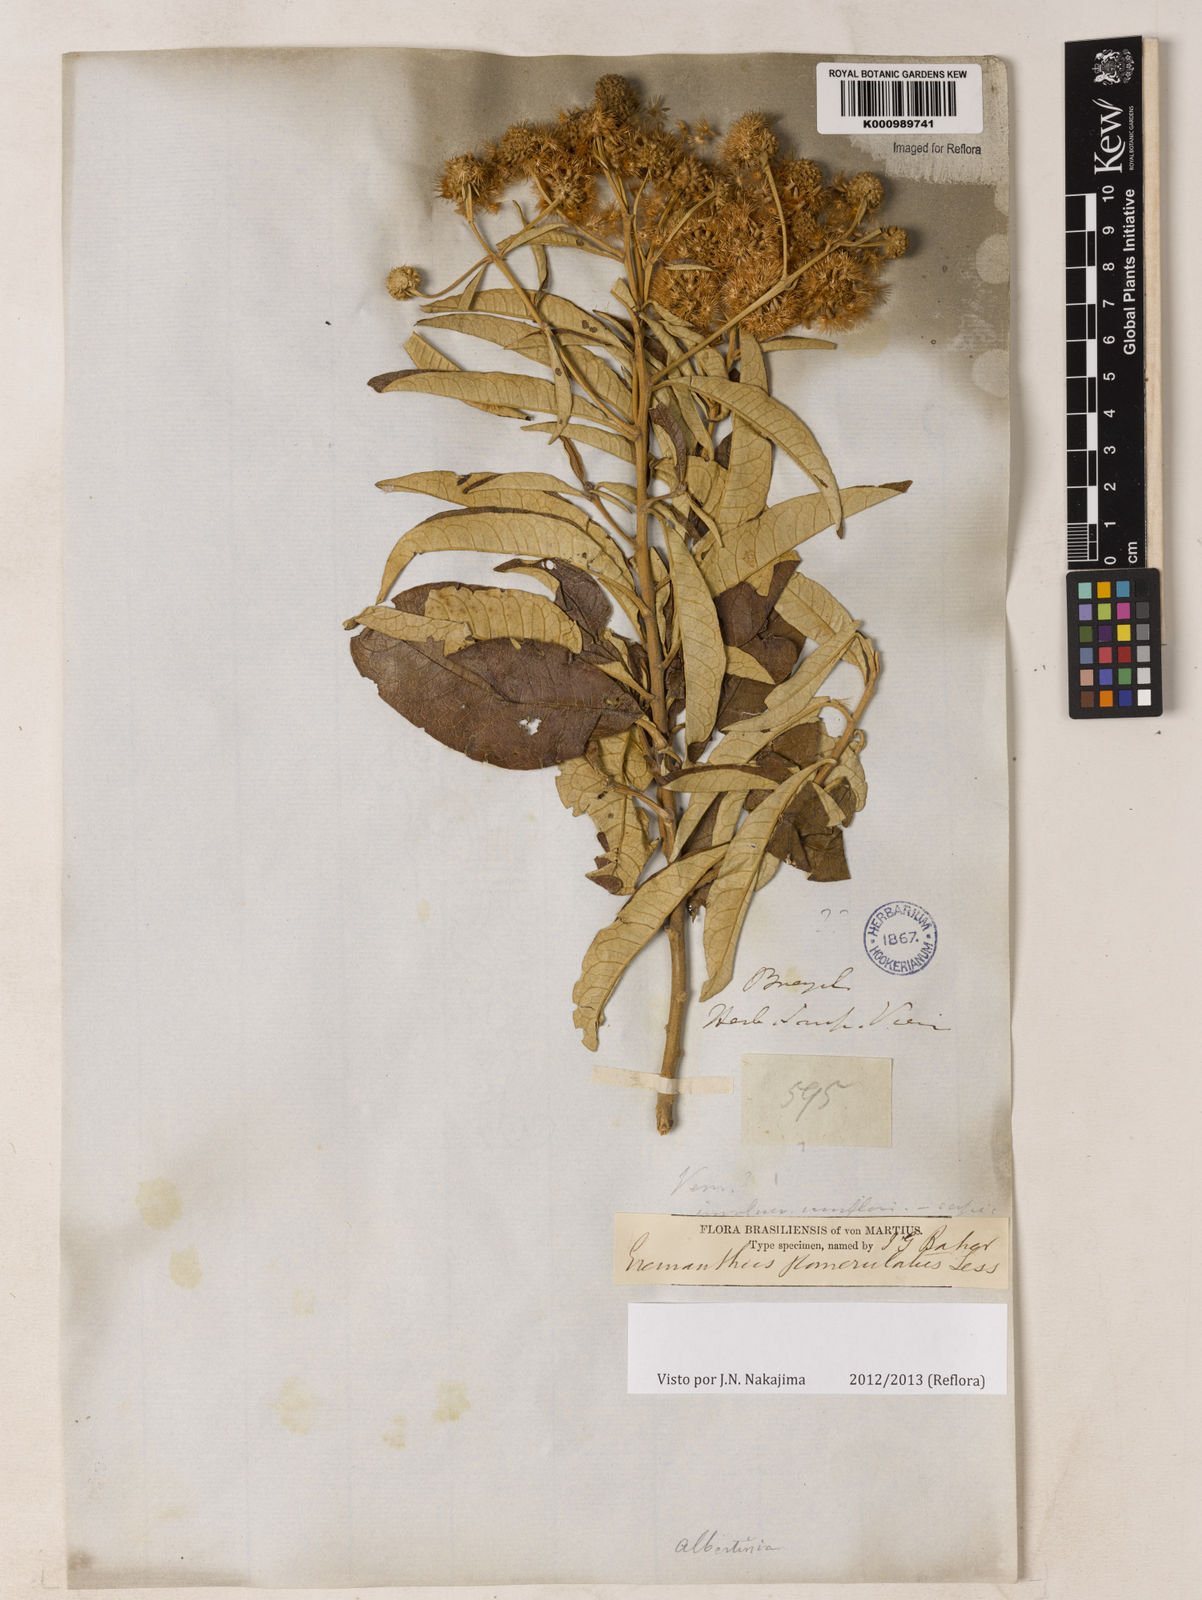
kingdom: Plantae
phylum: Tracheophyta
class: Magnoliopsida
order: Asterales
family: Asteraceae
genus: Eremanthus
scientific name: Eremanthus glomerulatus
